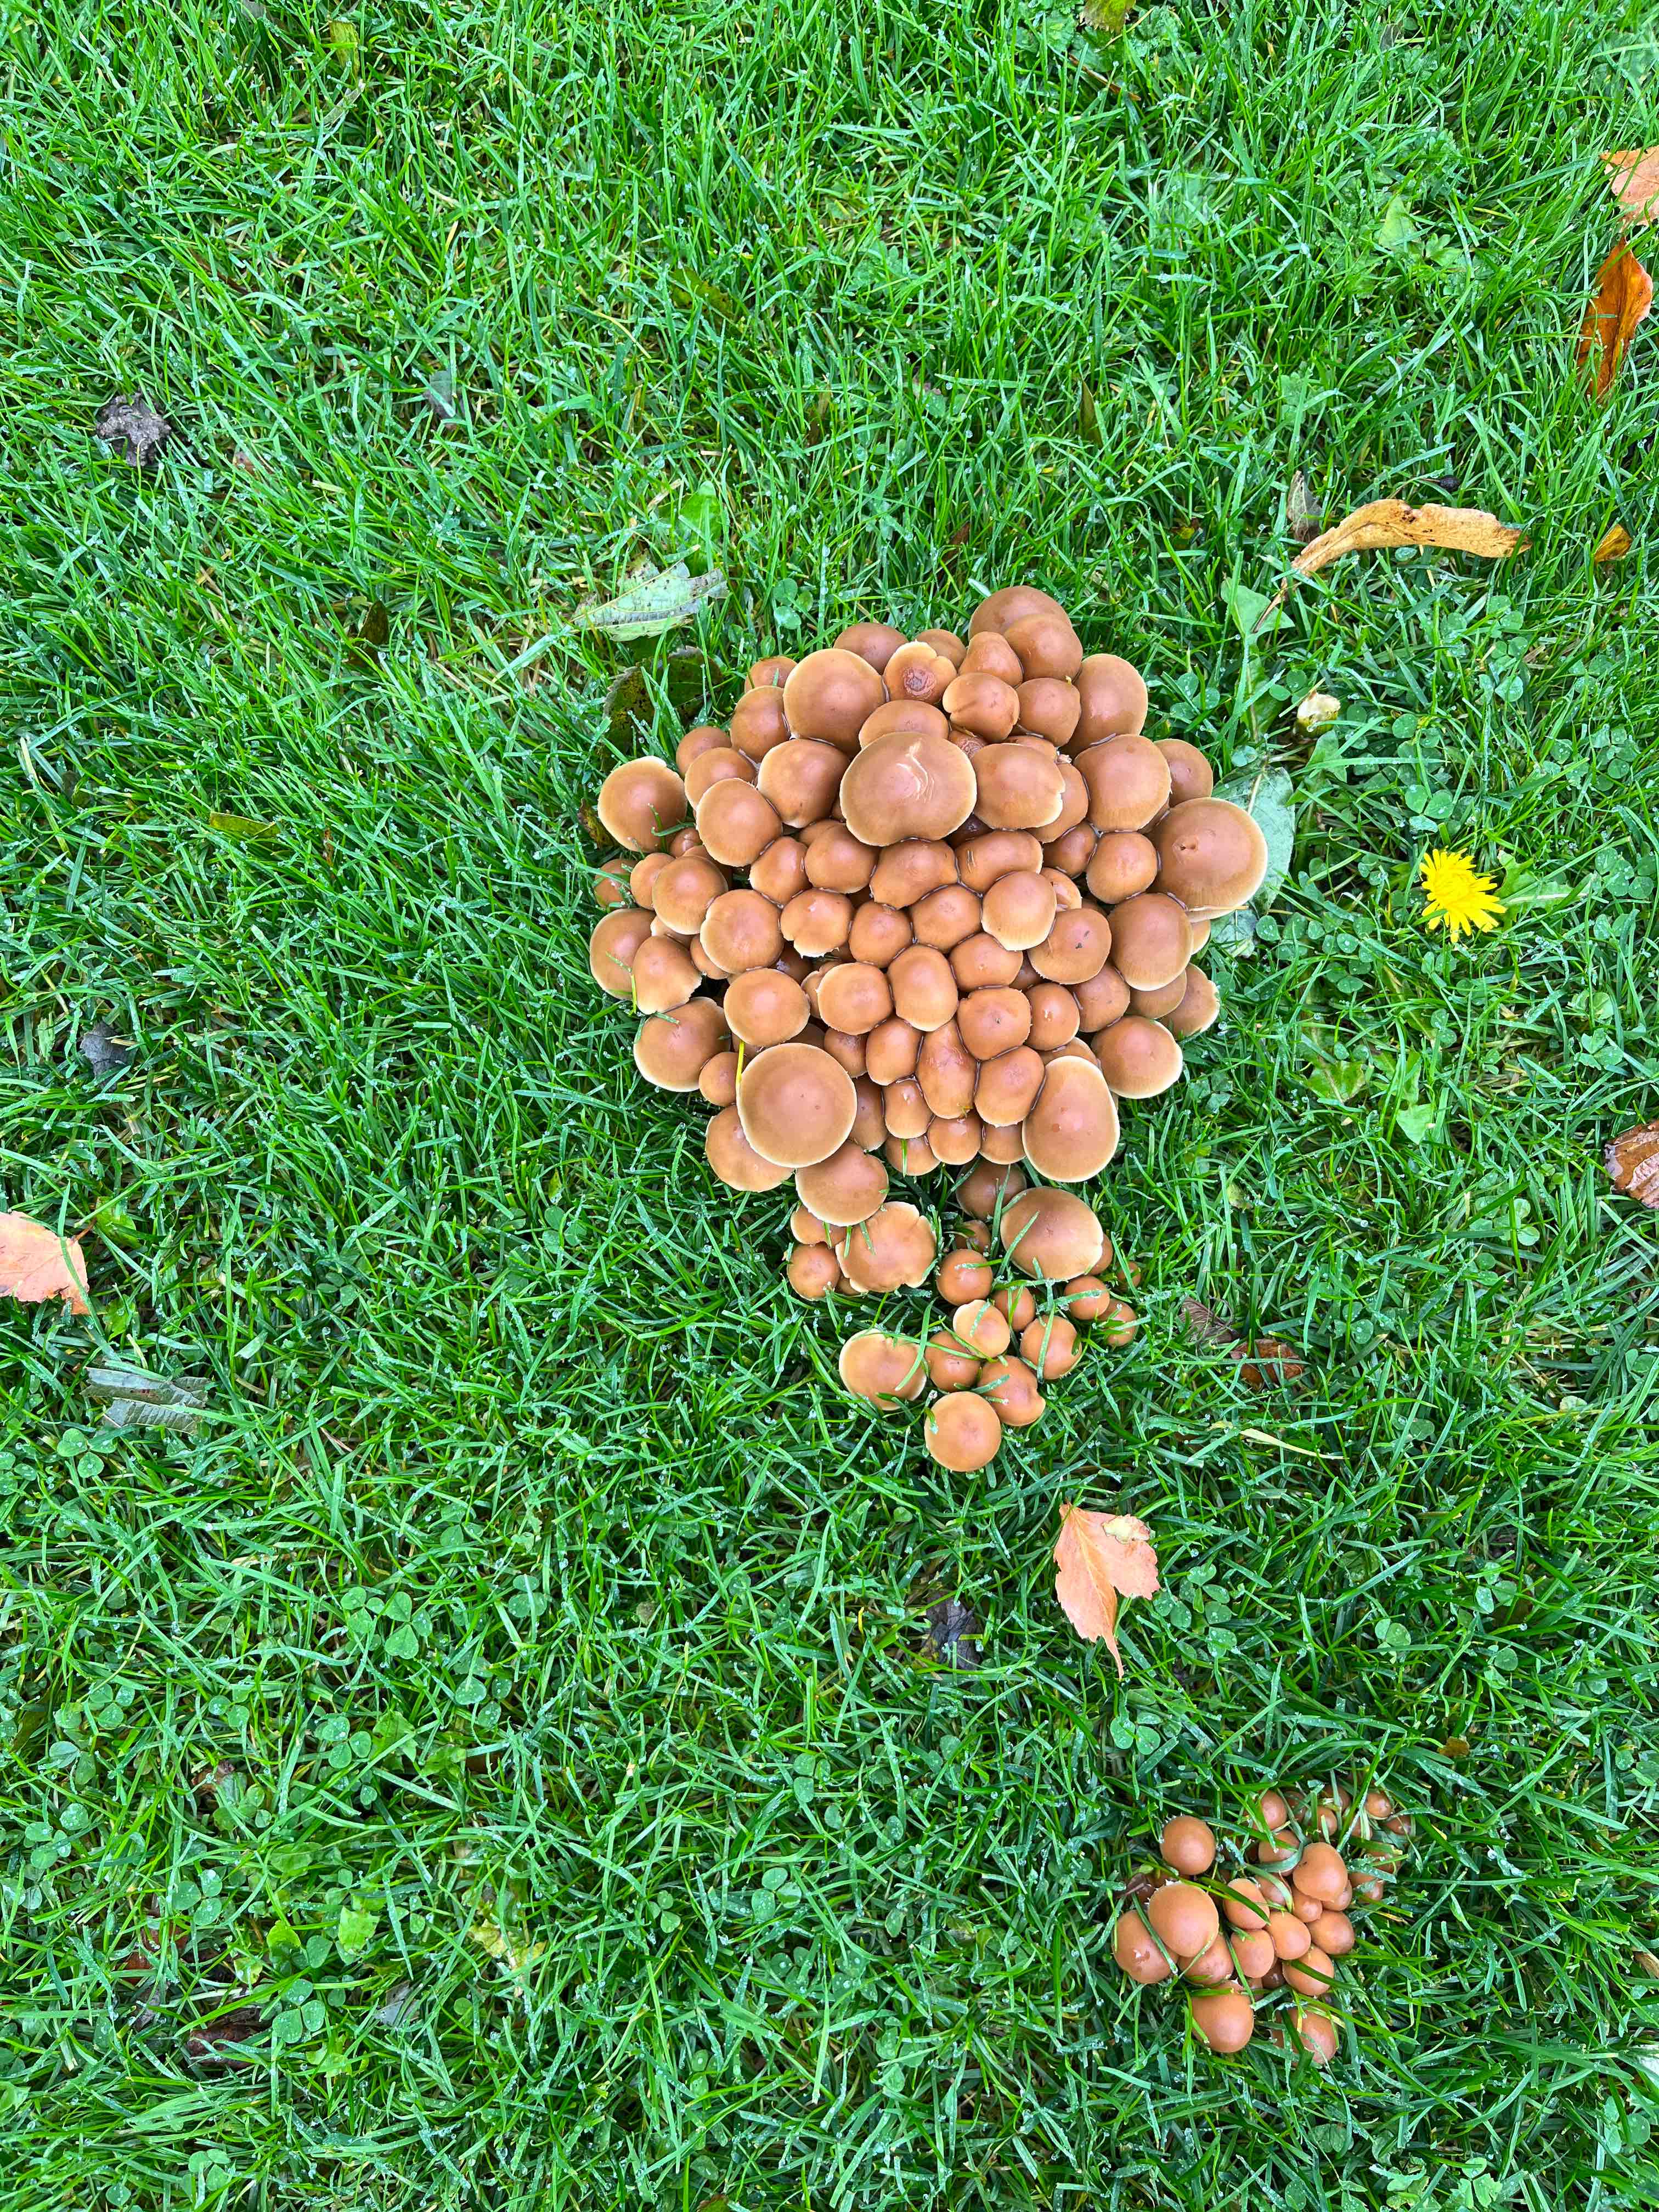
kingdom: Fungi
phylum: Basidiomycota
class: Agaricomycetes
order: Agaricales
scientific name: Agaricales
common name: champignonordenen
